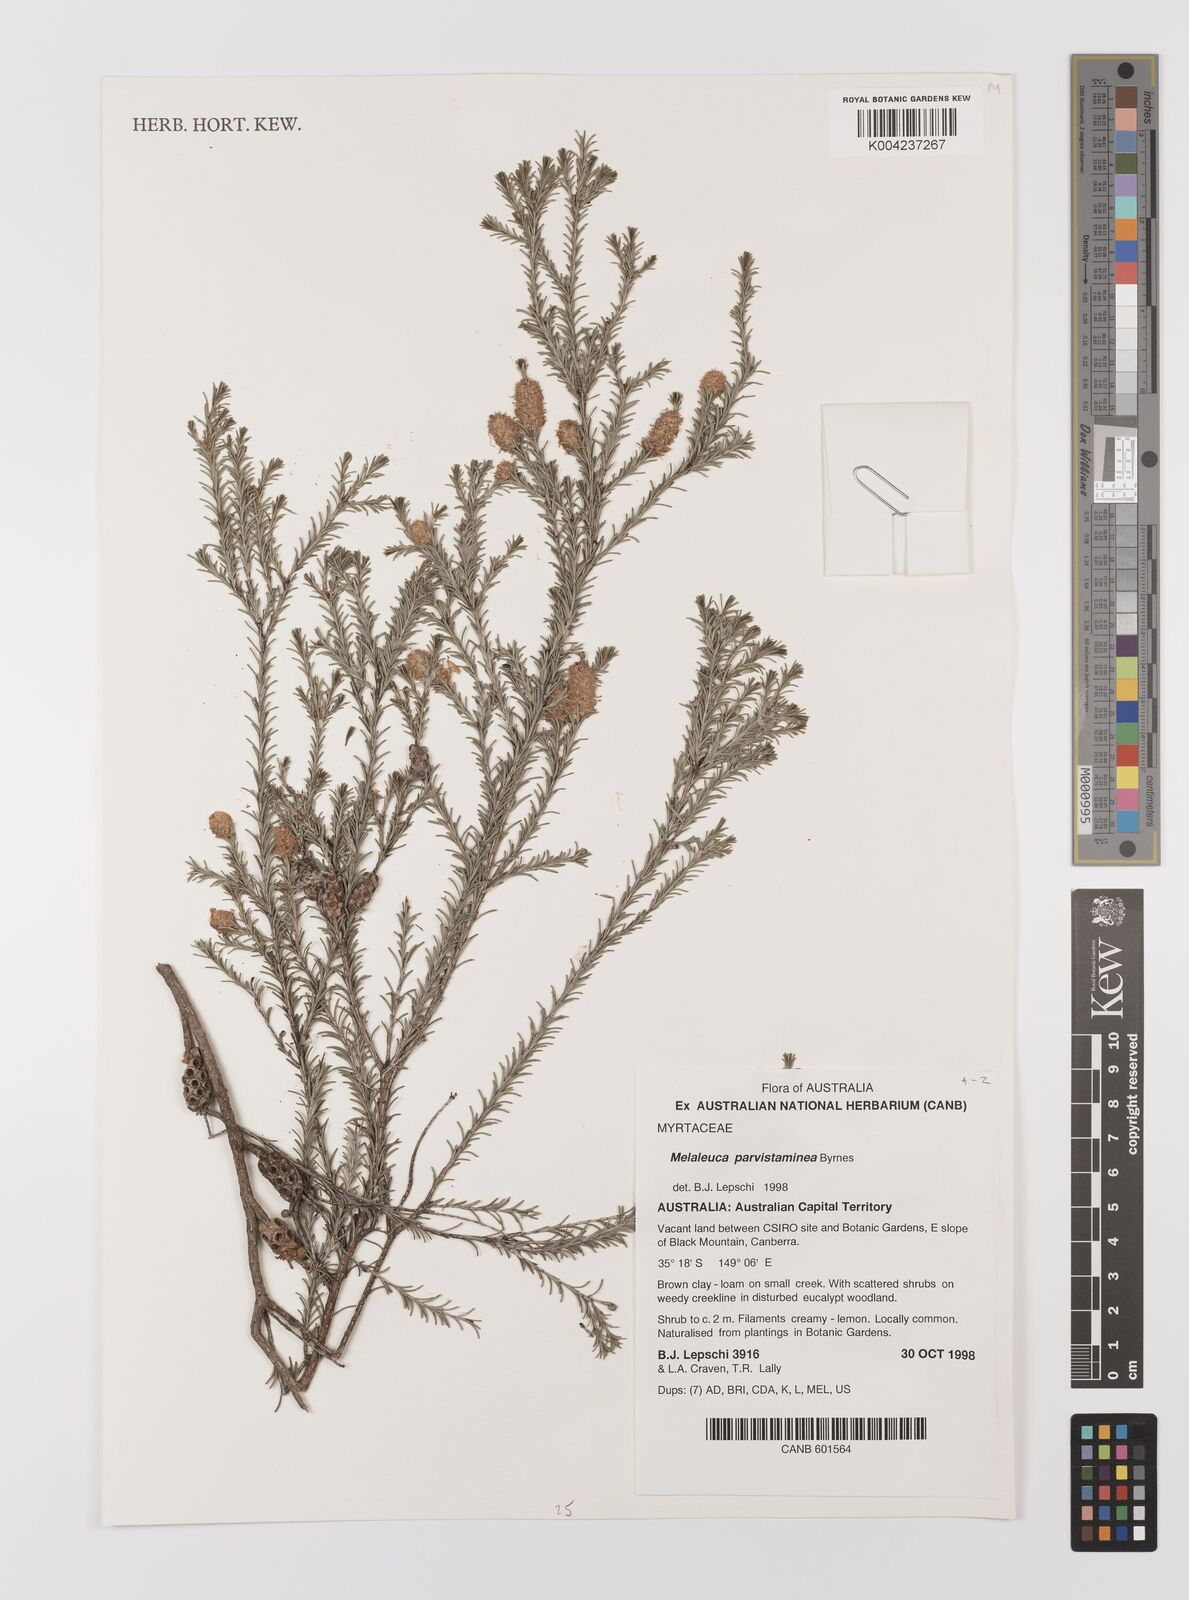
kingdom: Plantae
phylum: Tracheophyta
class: Magnoliopsida
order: Myrtales
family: Myrtaceae
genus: Melaleuca
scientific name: Melaleuca parvistaminea
